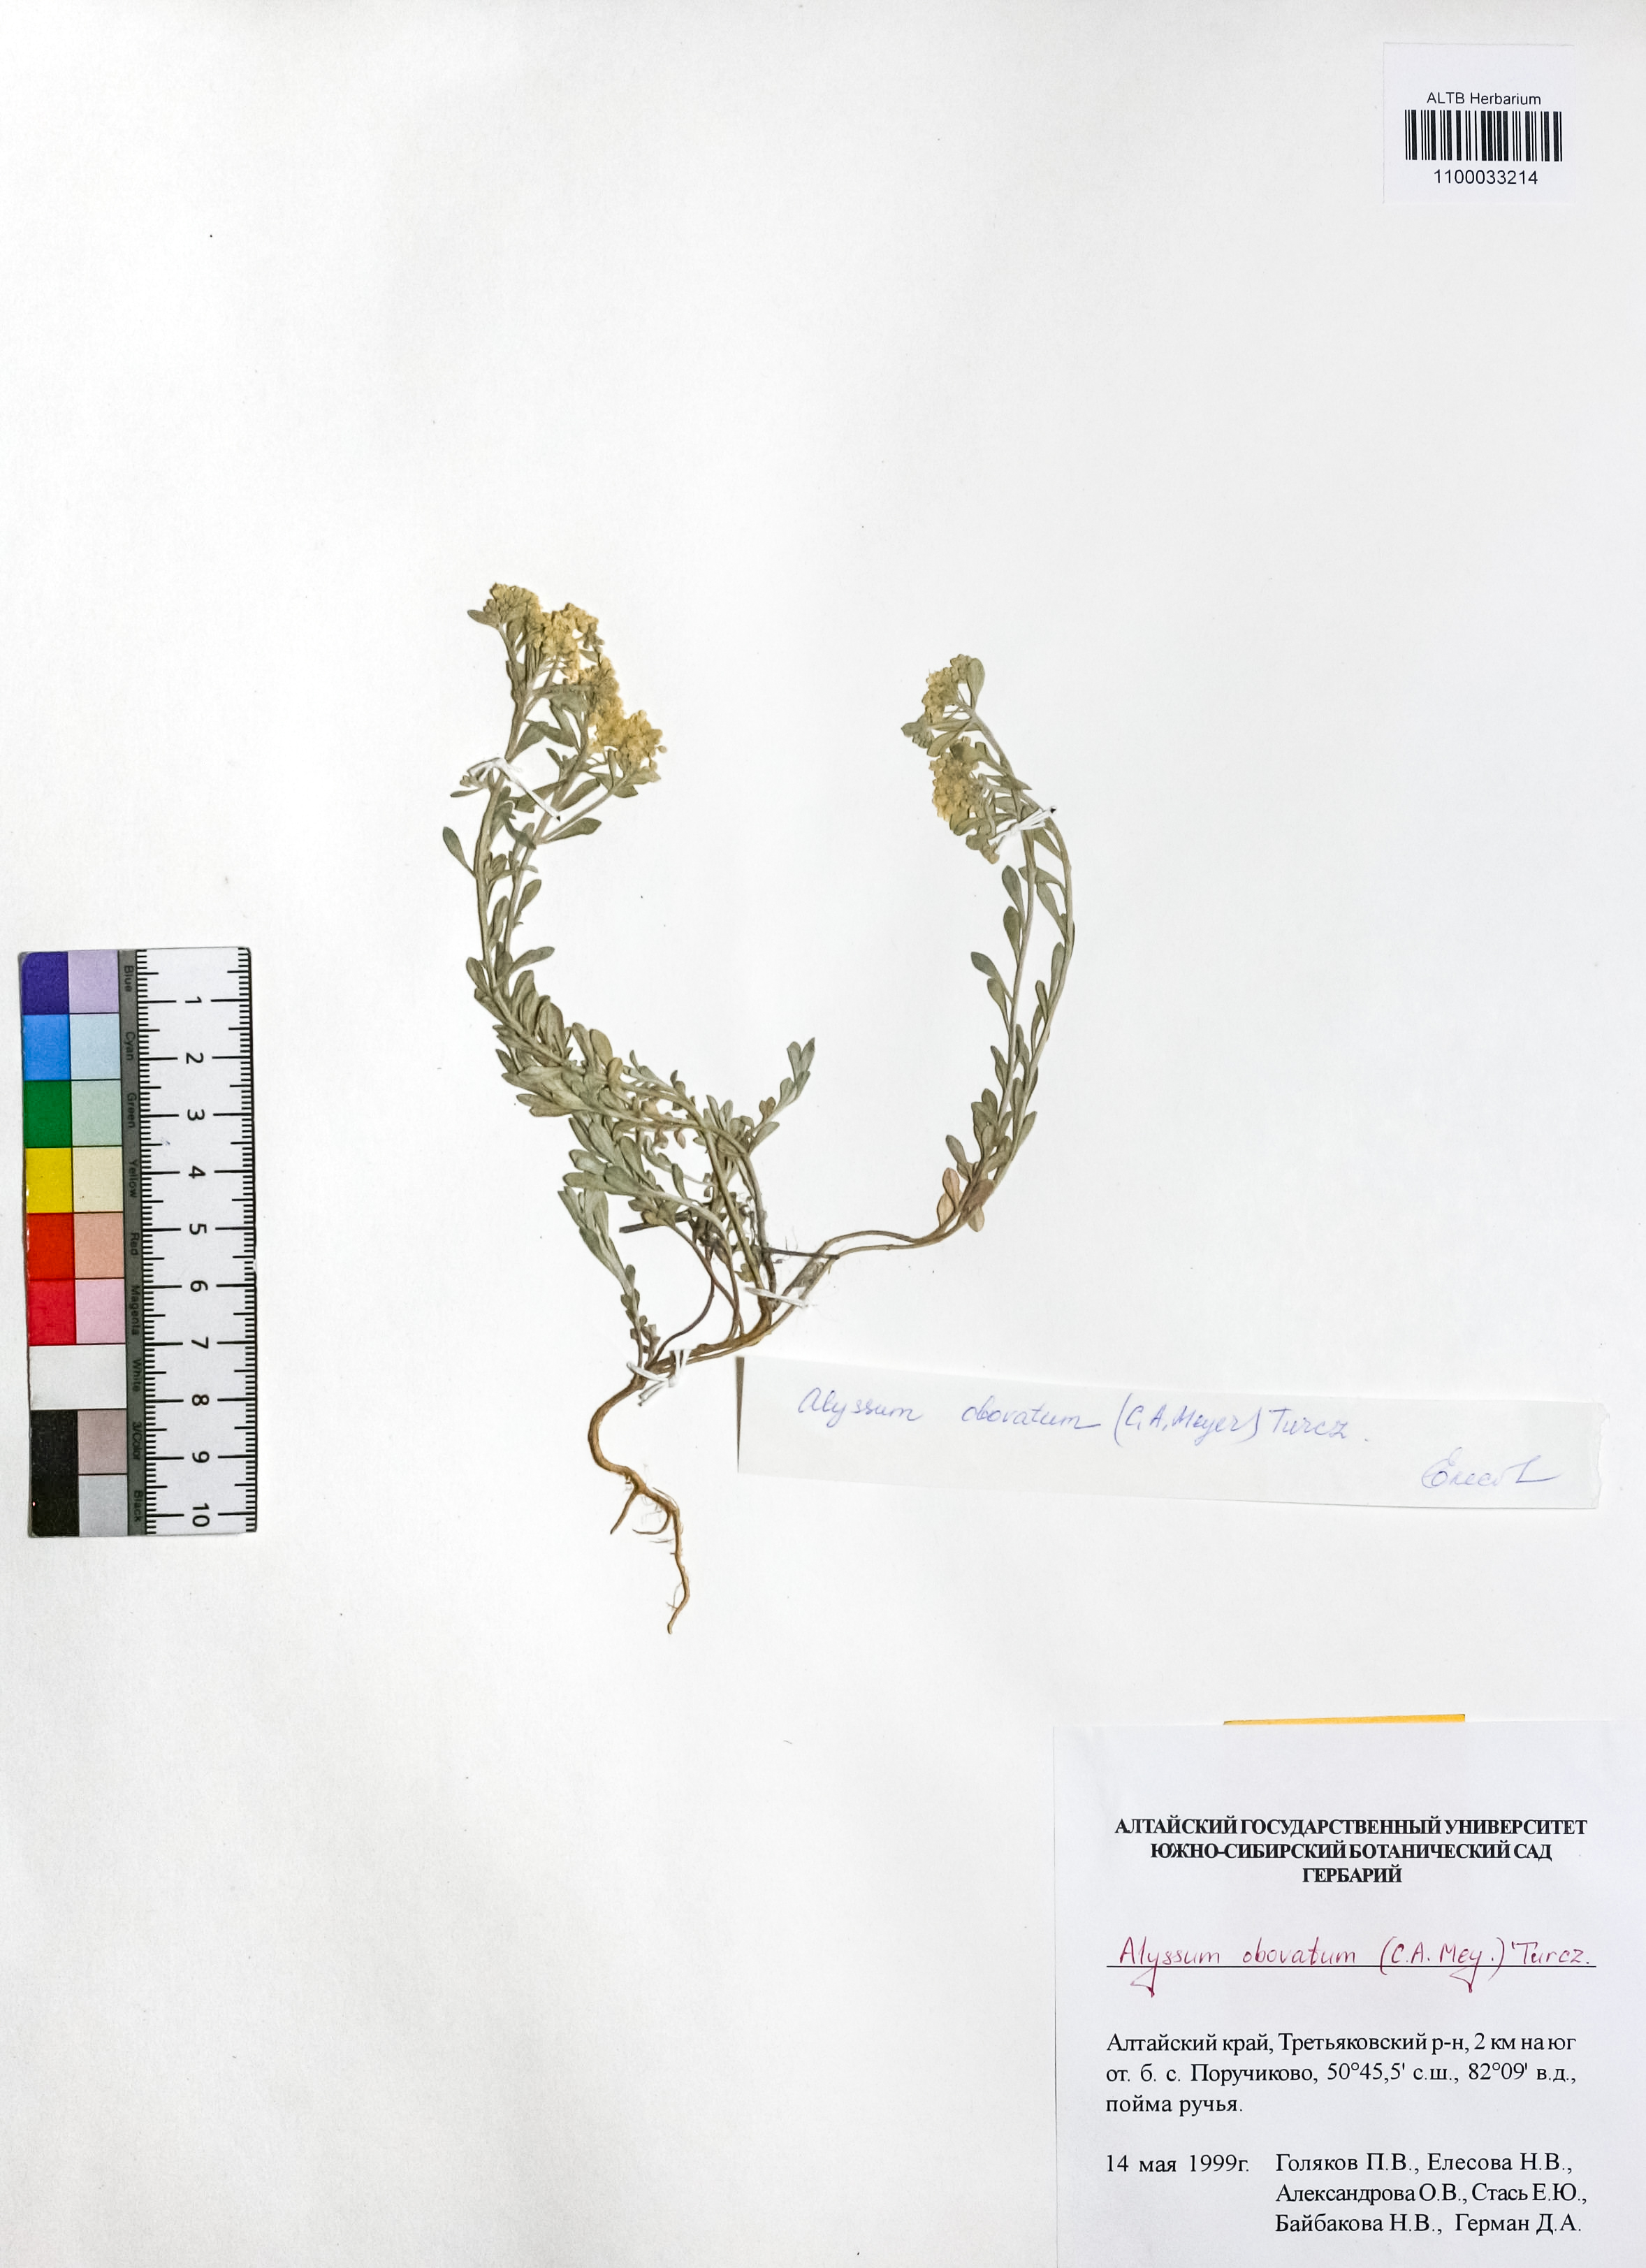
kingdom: Plantae
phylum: Tracheophyta
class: Magnoliopsida
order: Brassicales
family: Brassicaceae
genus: Odontarrhena
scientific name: Odontarrhena obovata
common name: American alyssum
